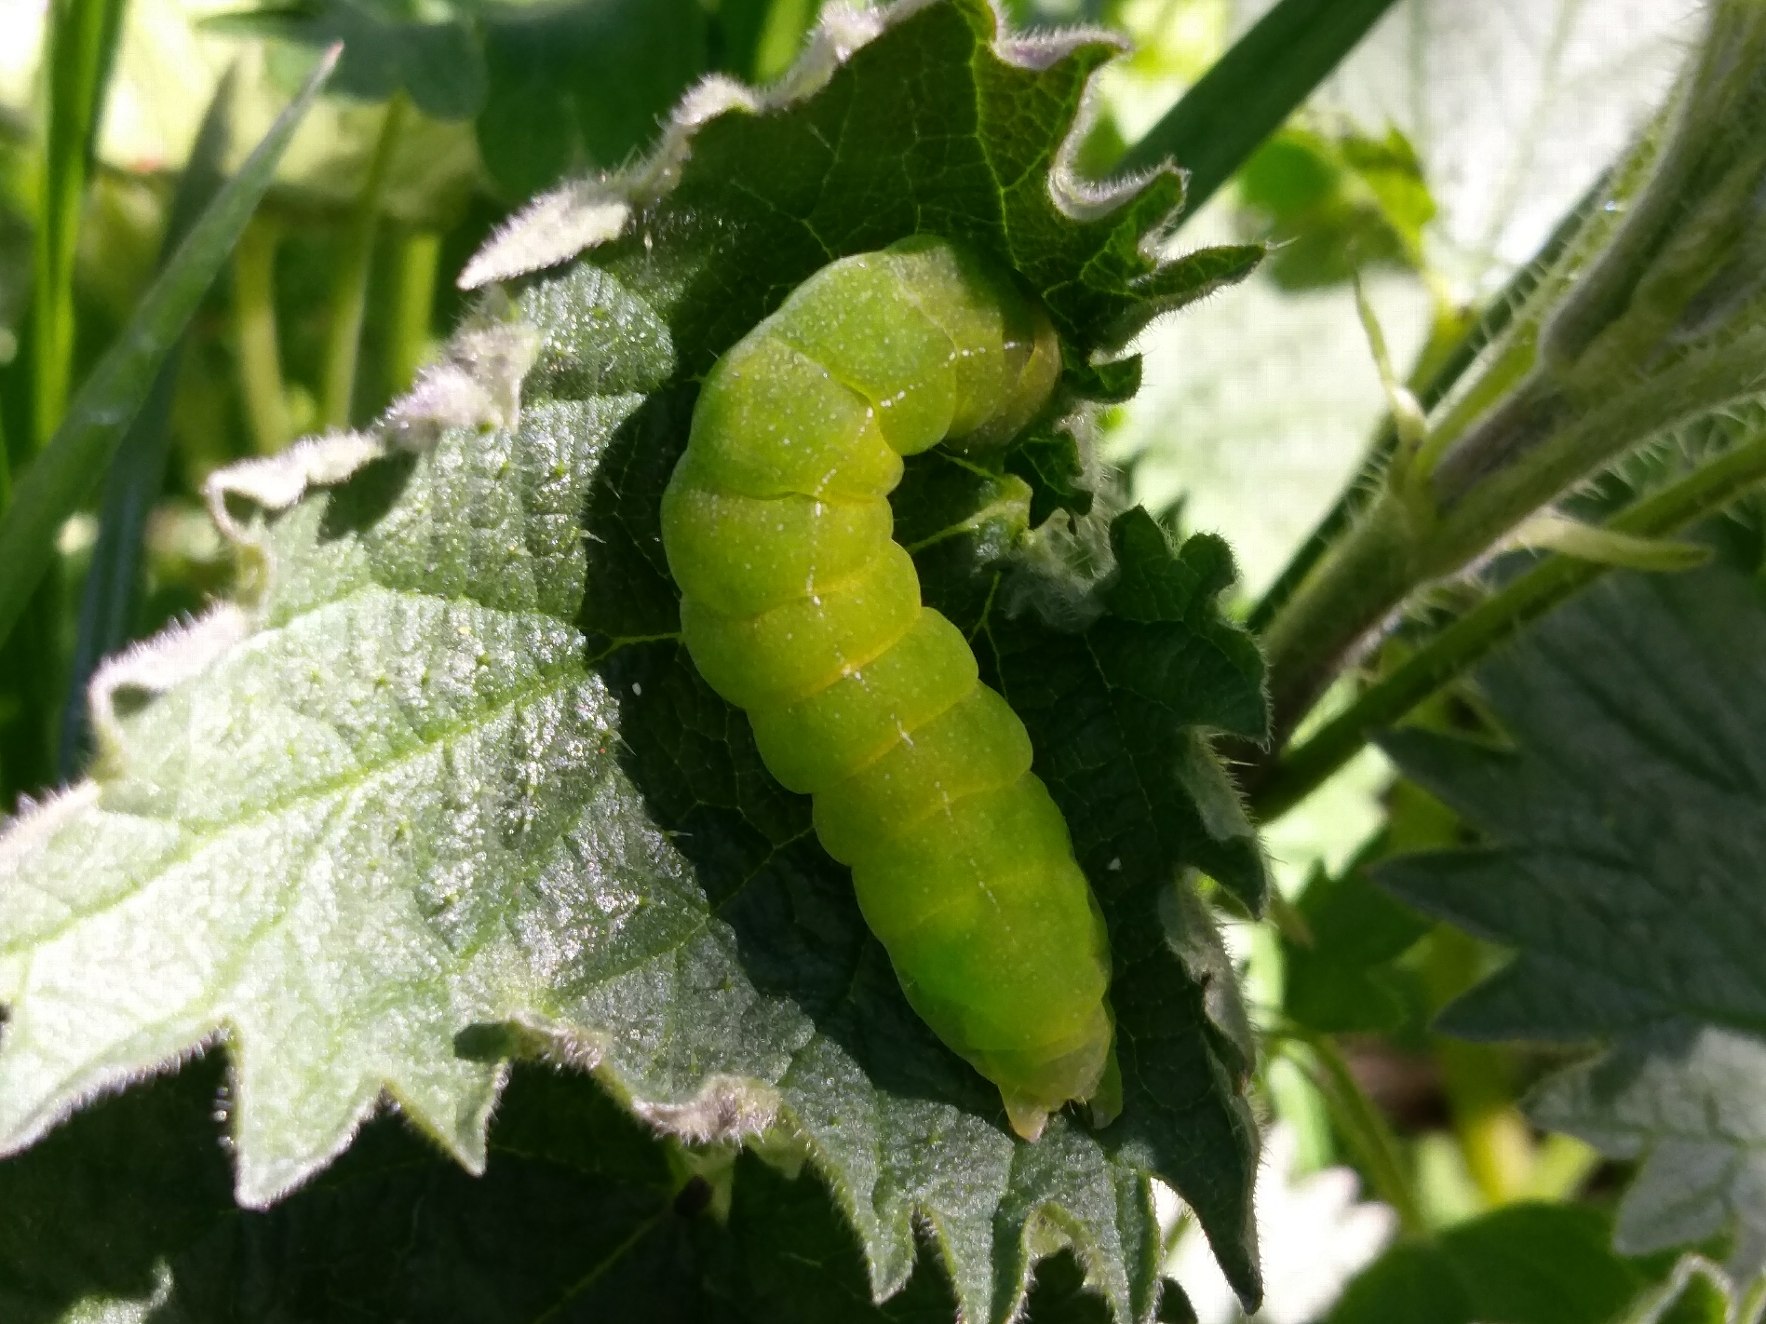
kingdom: Animalia
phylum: Arthropoda
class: Insecta
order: Lepidoptera
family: Noctuidae
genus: Phlogophora
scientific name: Phlogophora meticulosa
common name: Agatugle
